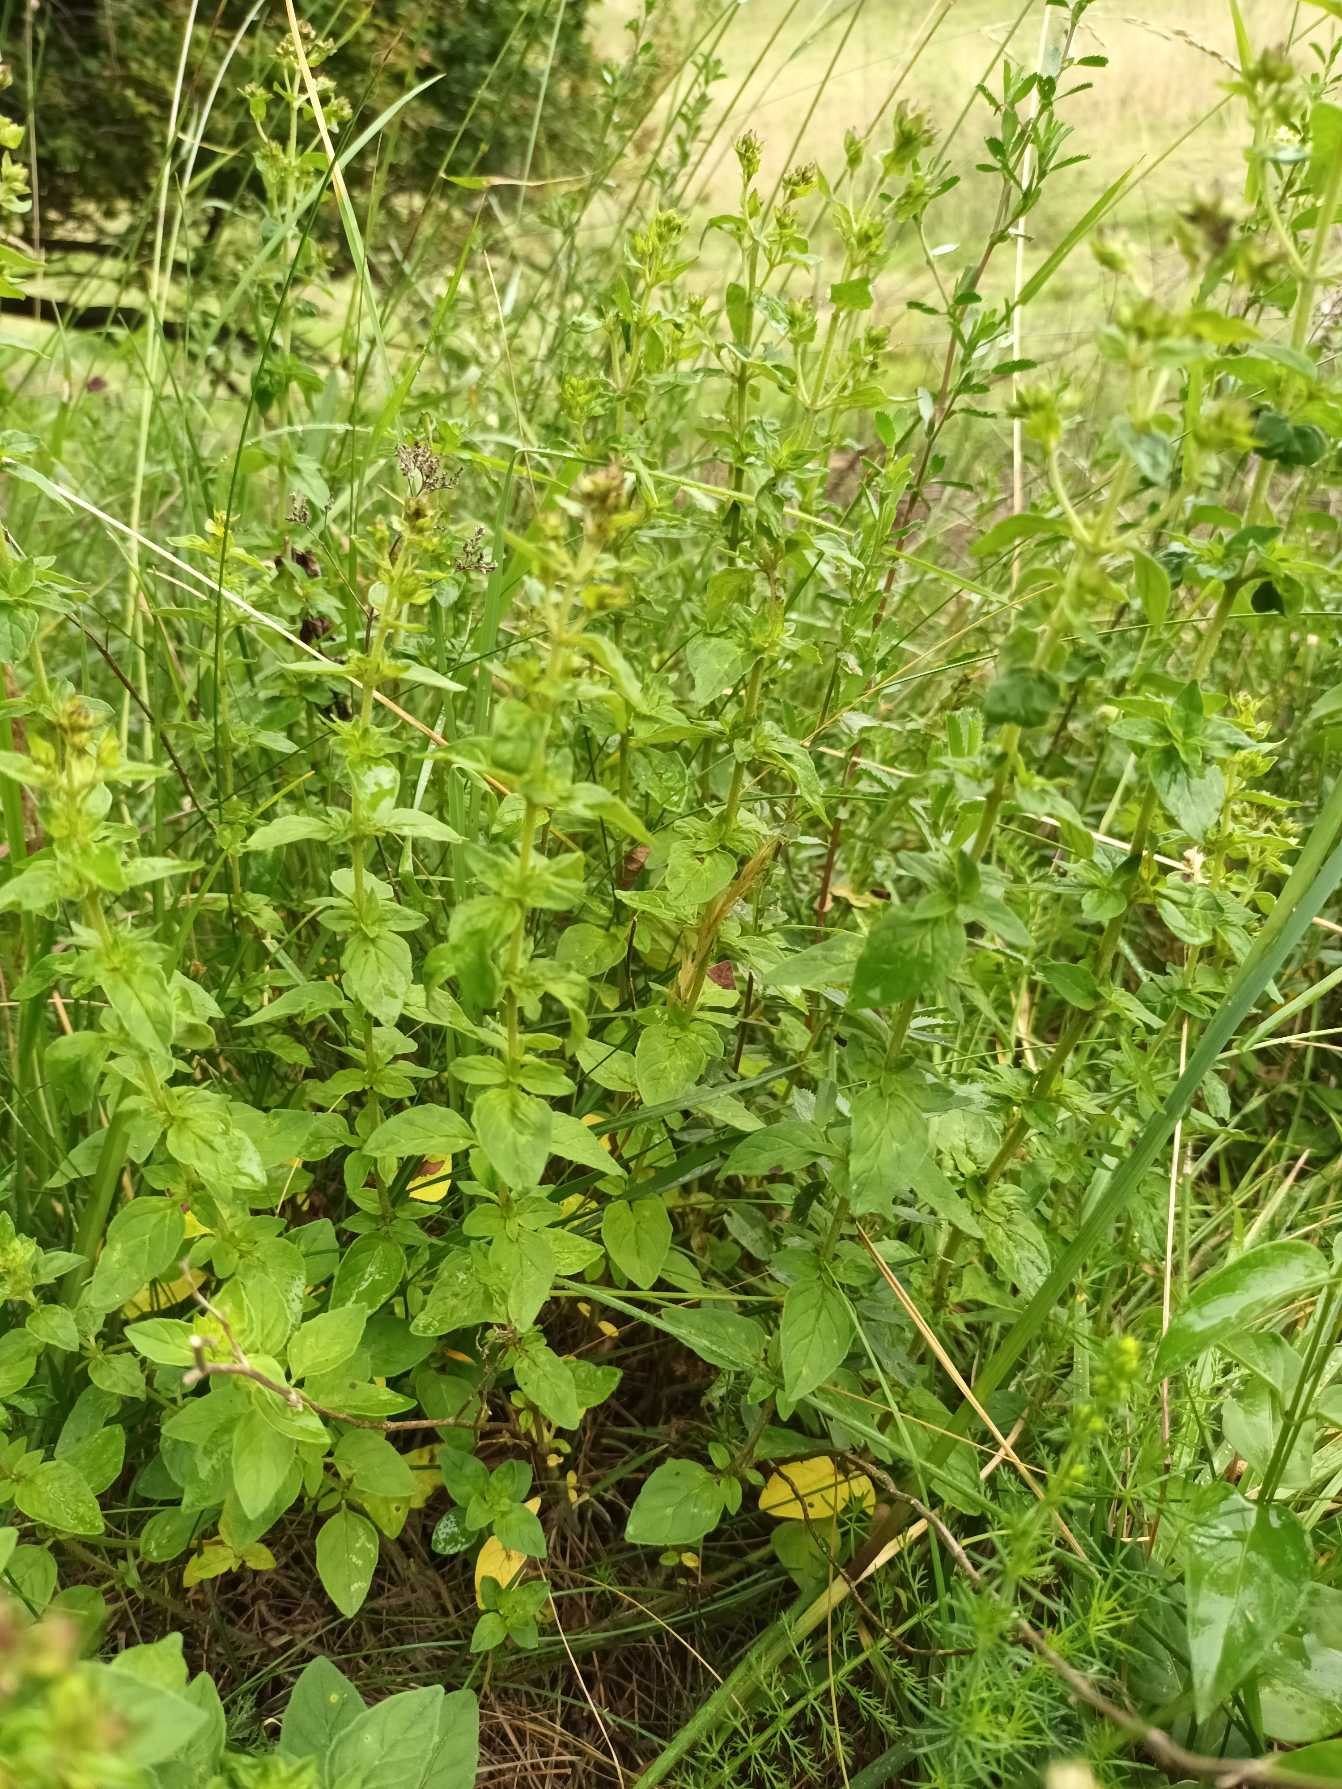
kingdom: Plantae
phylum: Tracheophyta
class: Magnoliopsida
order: Lamiales
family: Lamiaceae
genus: Origanum
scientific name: Origanum vulgare
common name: Merian
